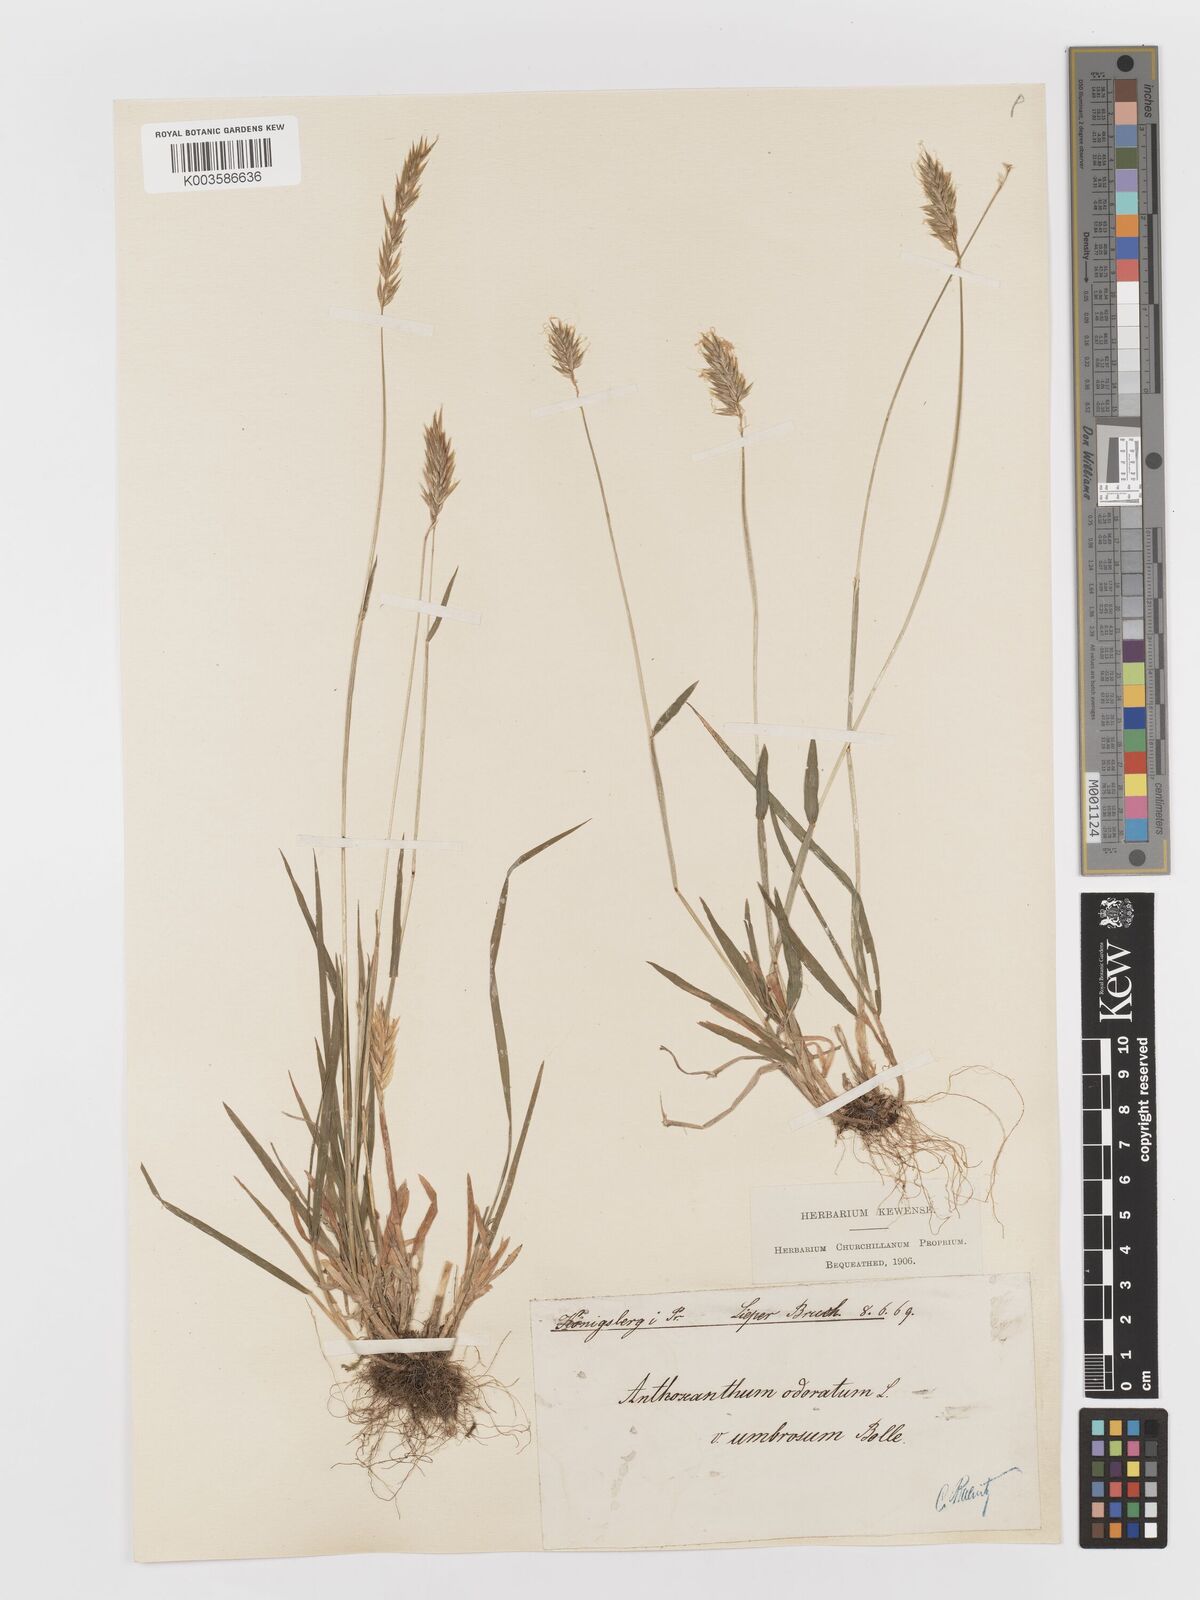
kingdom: Plantae
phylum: Tracheophyta
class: Liliopsida
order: Poales
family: Poaceae
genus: Anthoxanthum
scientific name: Anthoxanthum odoratum
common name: Sweet vernalgrass
